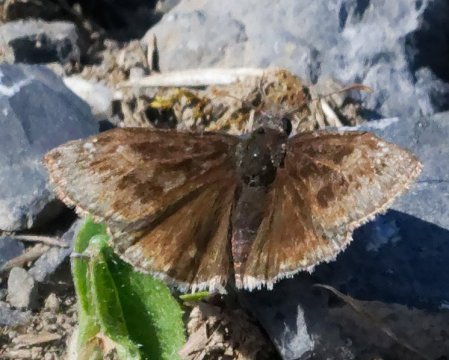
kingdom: Animalia
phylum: Arthropoda
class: Insecta
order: Lepidoptera
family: Hesperiidae
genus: Gesta
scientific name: Gesta
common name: Wild Indigo Duskywing
